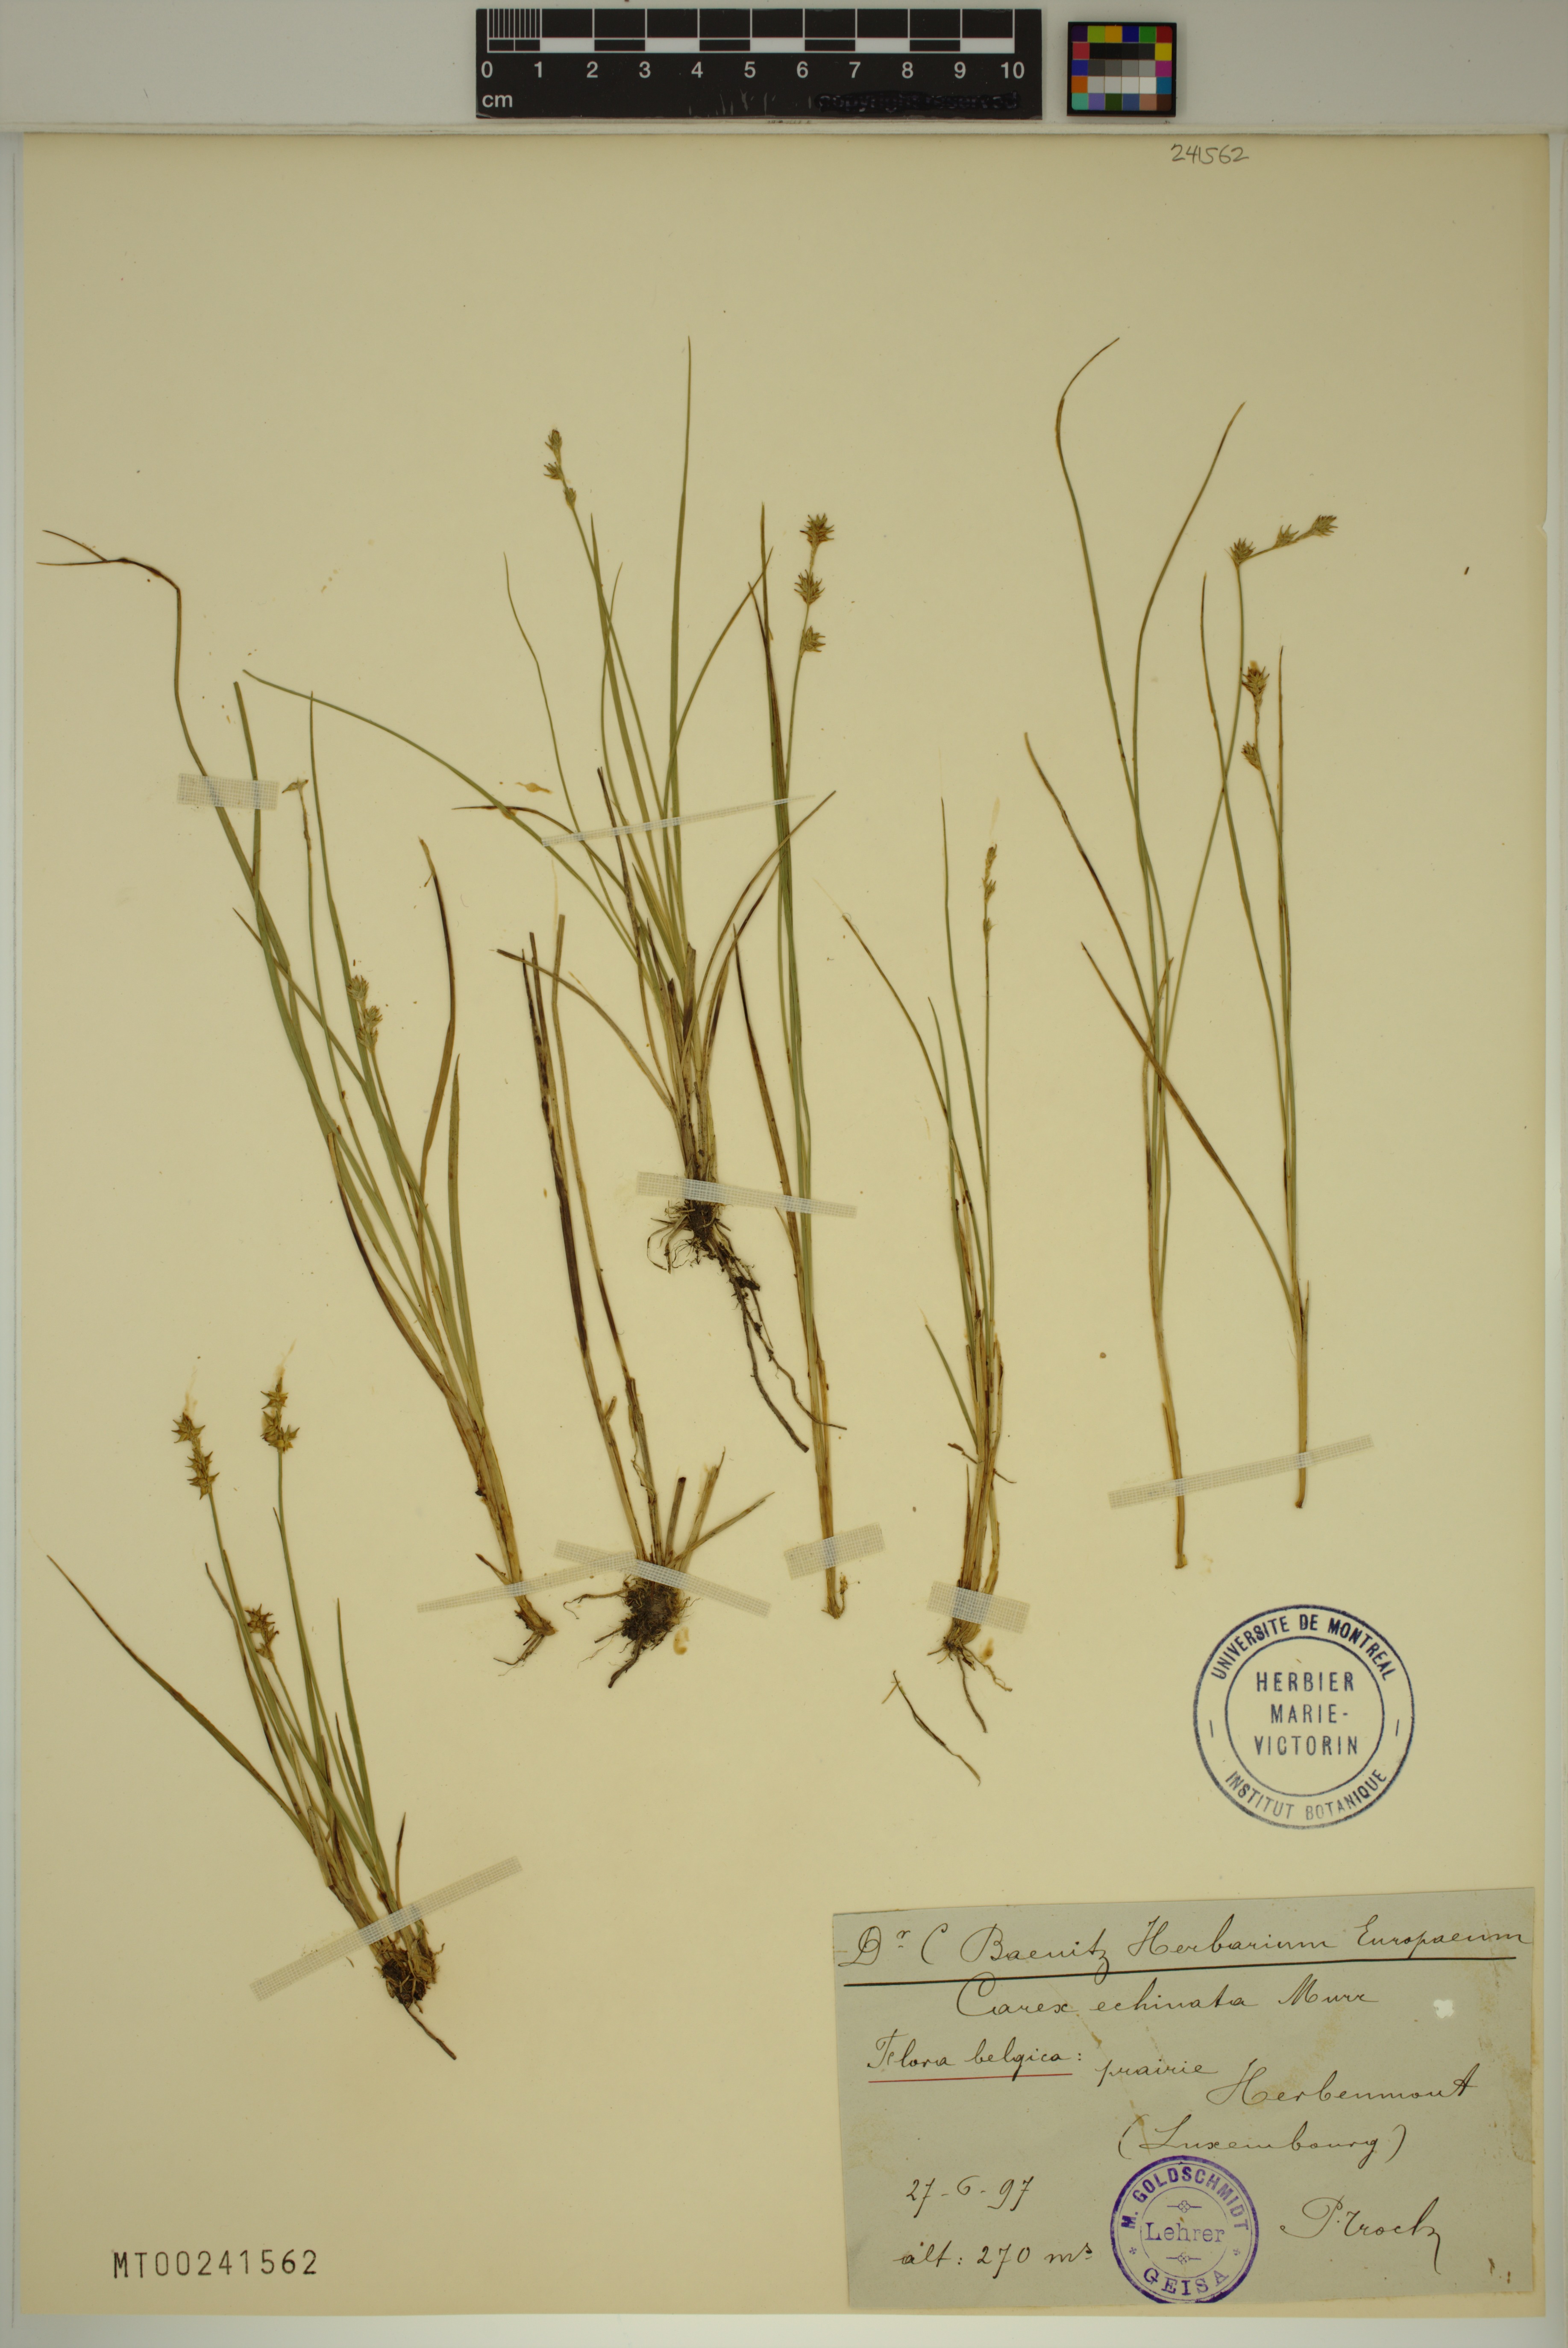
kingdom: Plantae
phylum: Tracheophyta
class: Liliopsida
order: Poales
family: Cyperaceae
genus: Carex
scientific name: Carex echinata
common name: Star sedge
